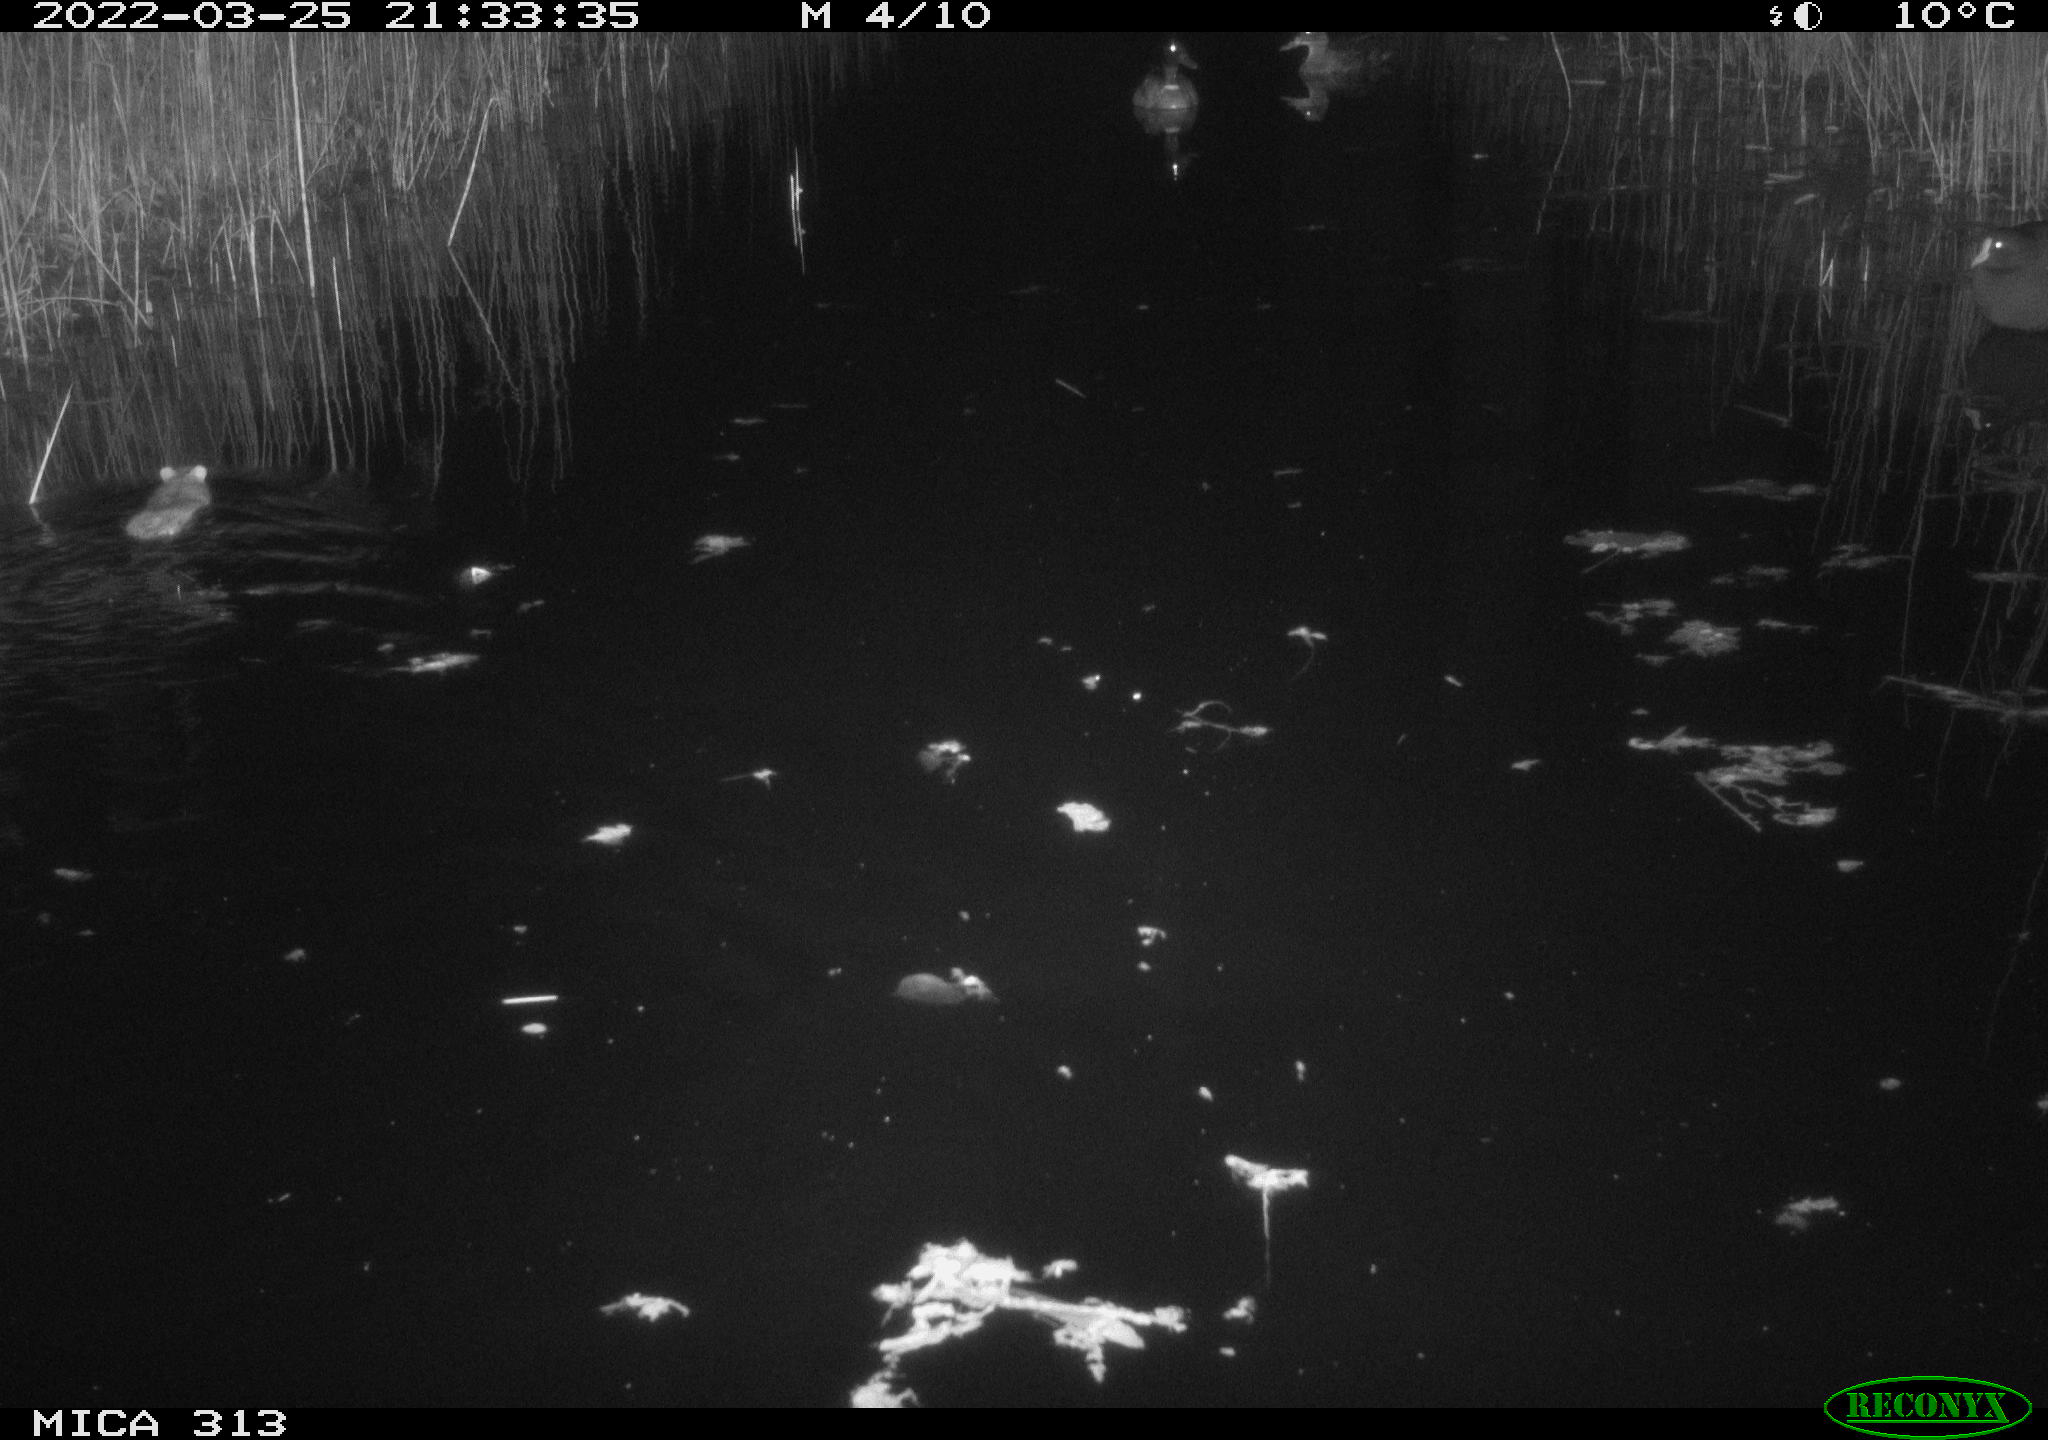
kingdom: Animalia
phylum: Chordata
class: Aves
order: Gruiformes
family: Rallidae
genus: Fulica
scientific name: Fulica atra
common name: Eurasian coot
